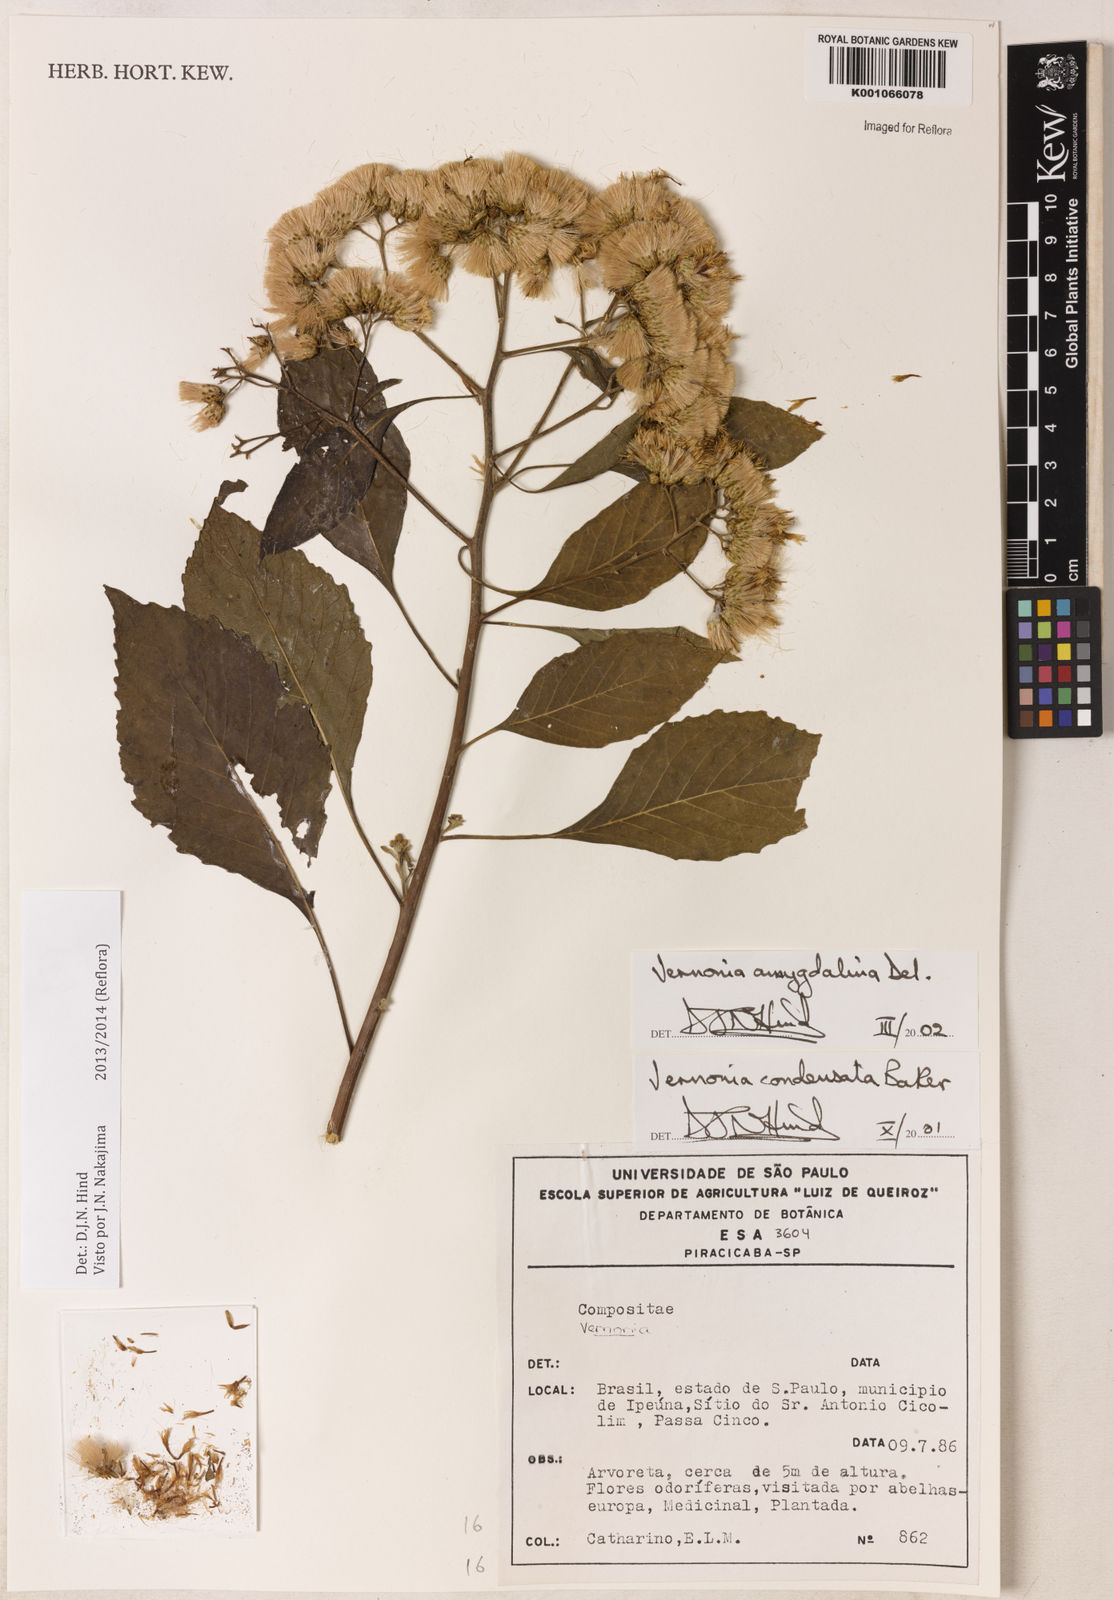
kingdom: Plantae
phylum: Tracheophyta
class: Magnoliopsida
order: Asterales
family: Asteraceae
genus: Gymnanthemum
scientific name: Gymnanthemum amygdalinum
